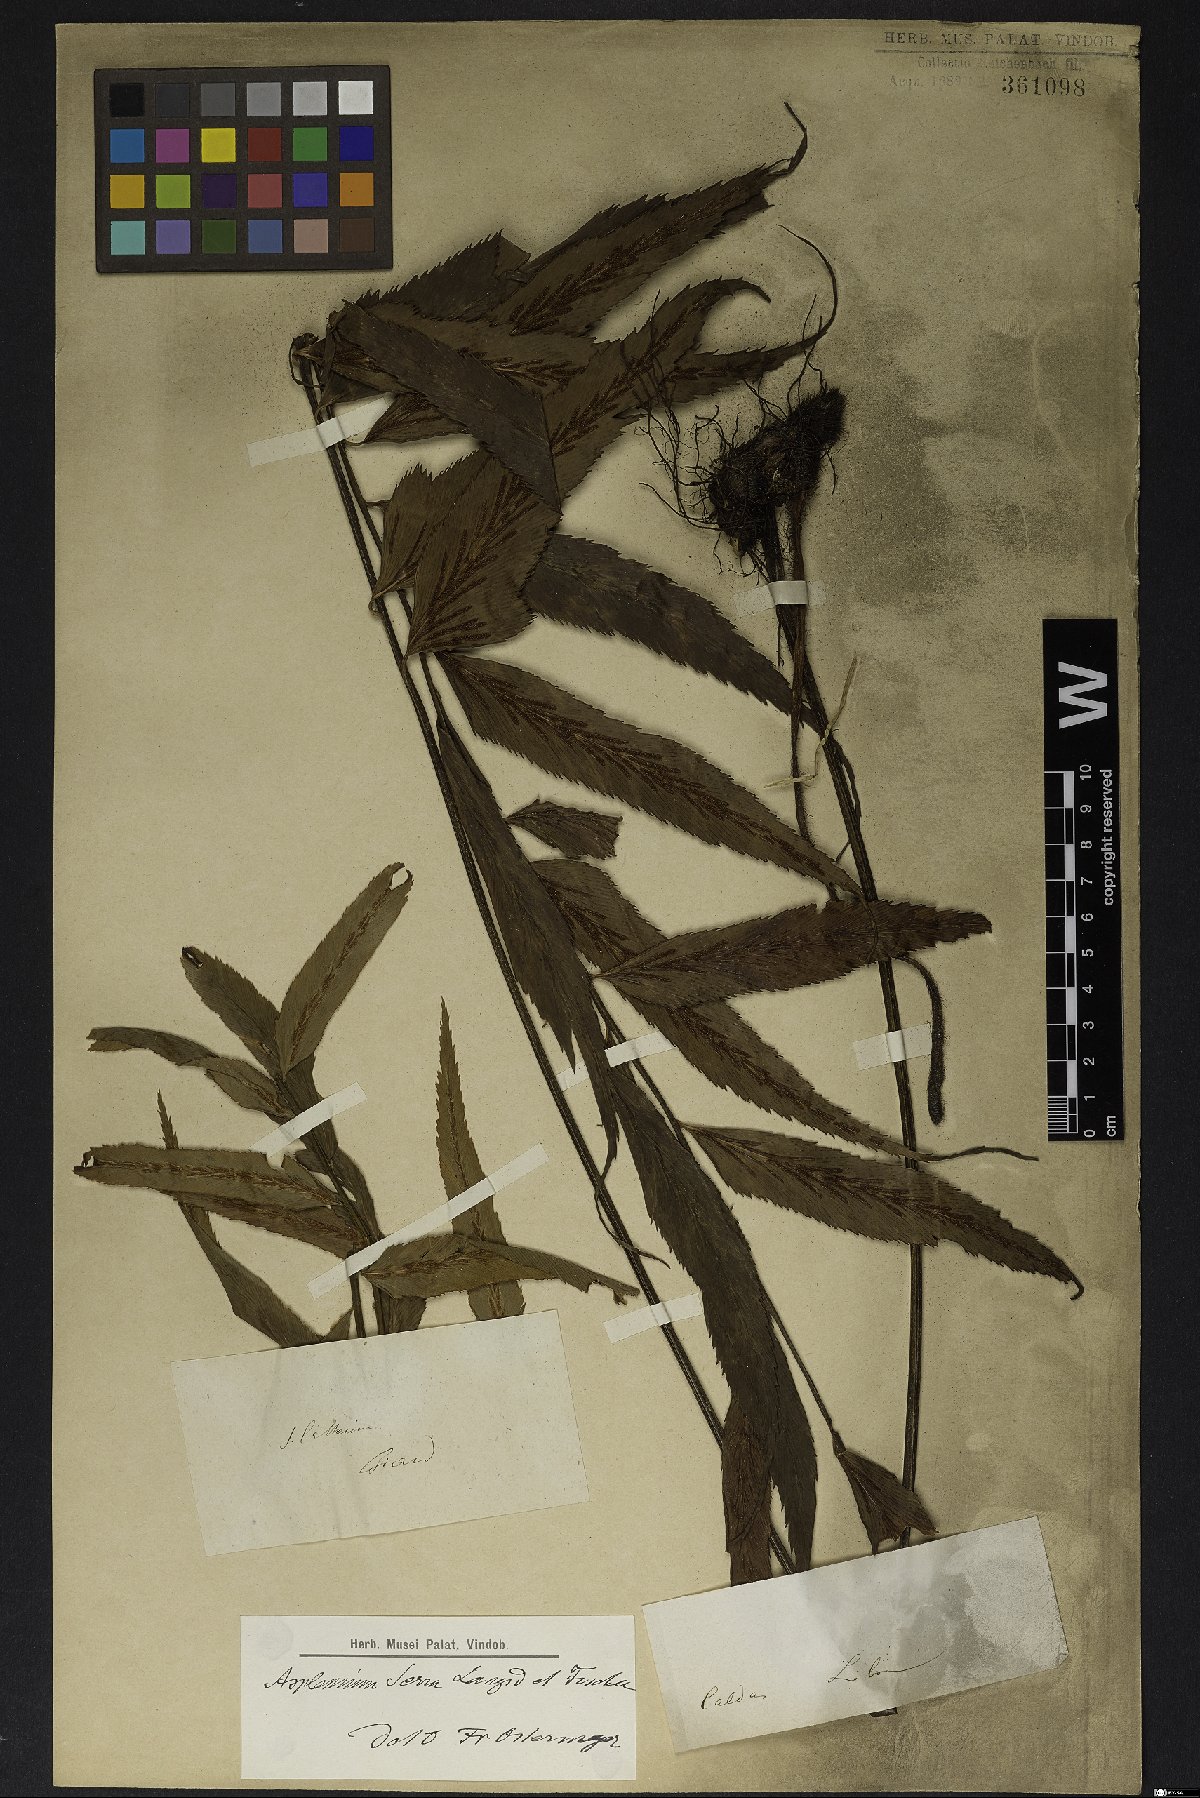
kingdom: Plantae
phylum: Tracheophyta
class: Polypodiopsida
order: Polypodiales
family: Aspleniaceae
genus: Asplenium
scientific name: Asplenium serra
